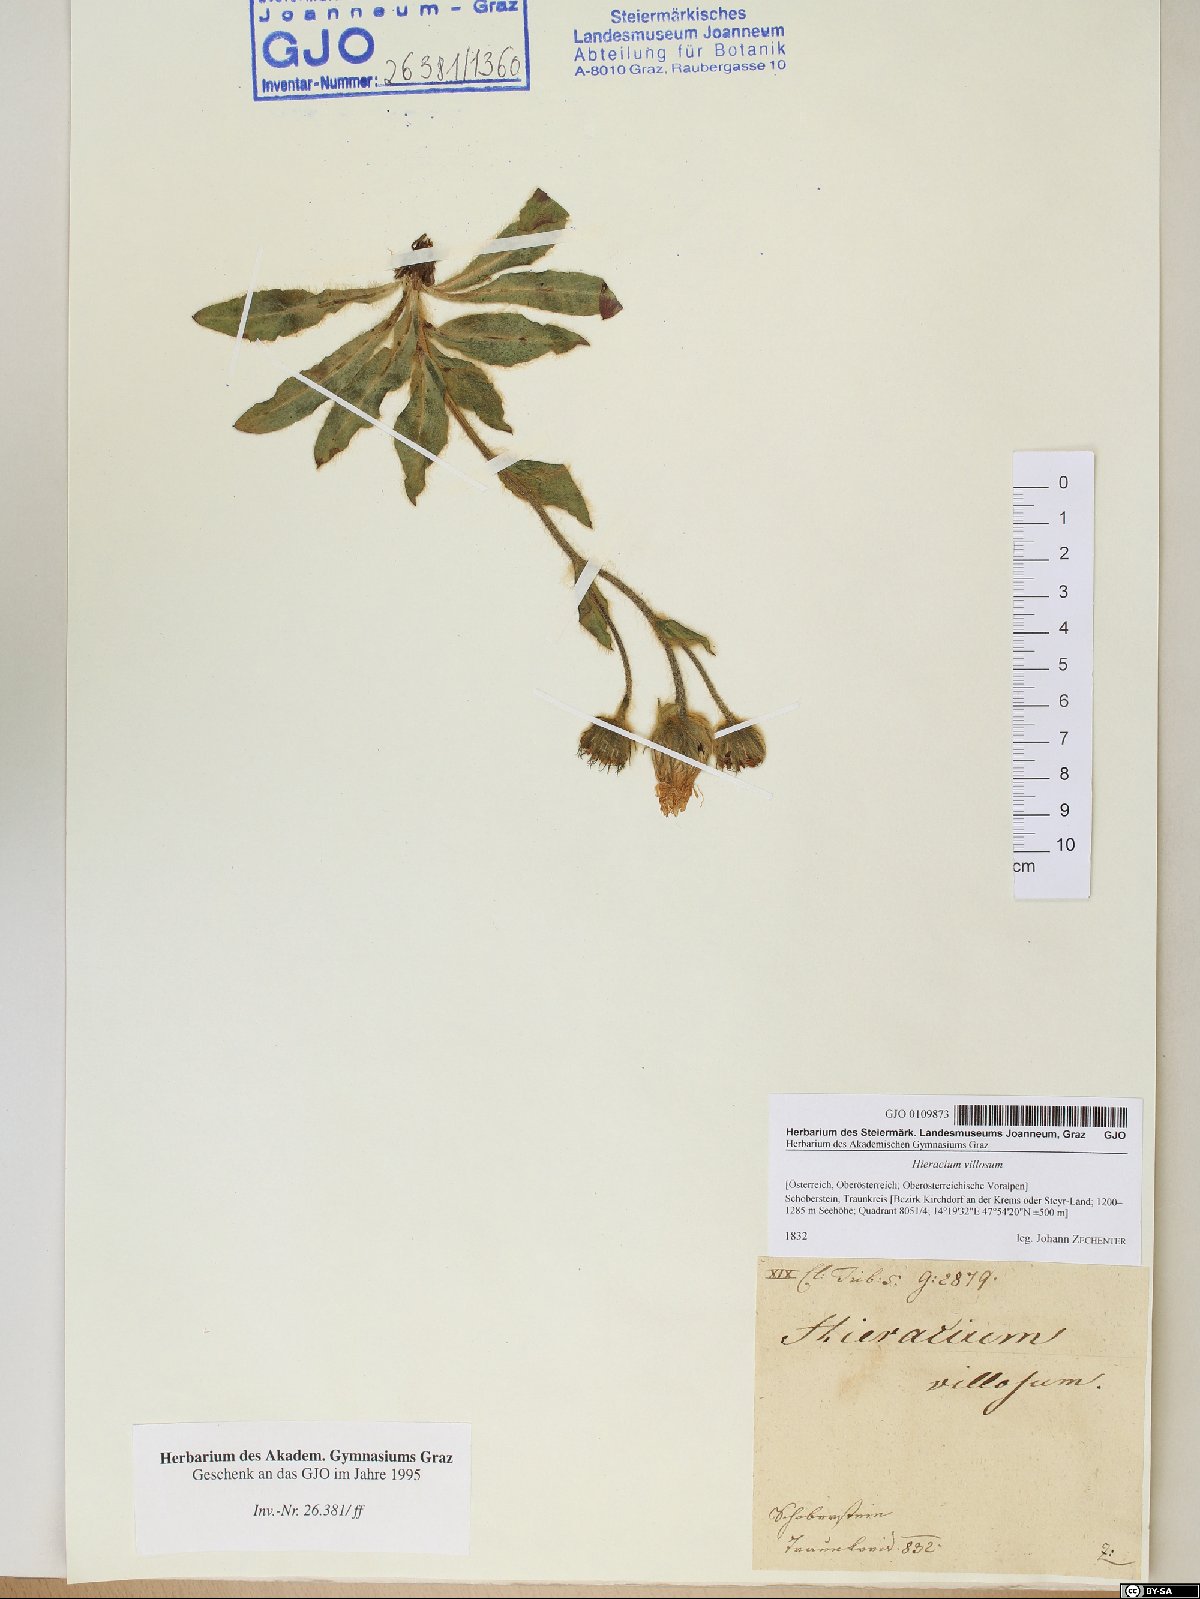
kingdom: Plantae
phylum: Tracheophyta
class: Magnoliopsida
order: Asterales
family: Asteraceae
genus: Hieracium
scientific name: Hieracium villosum
